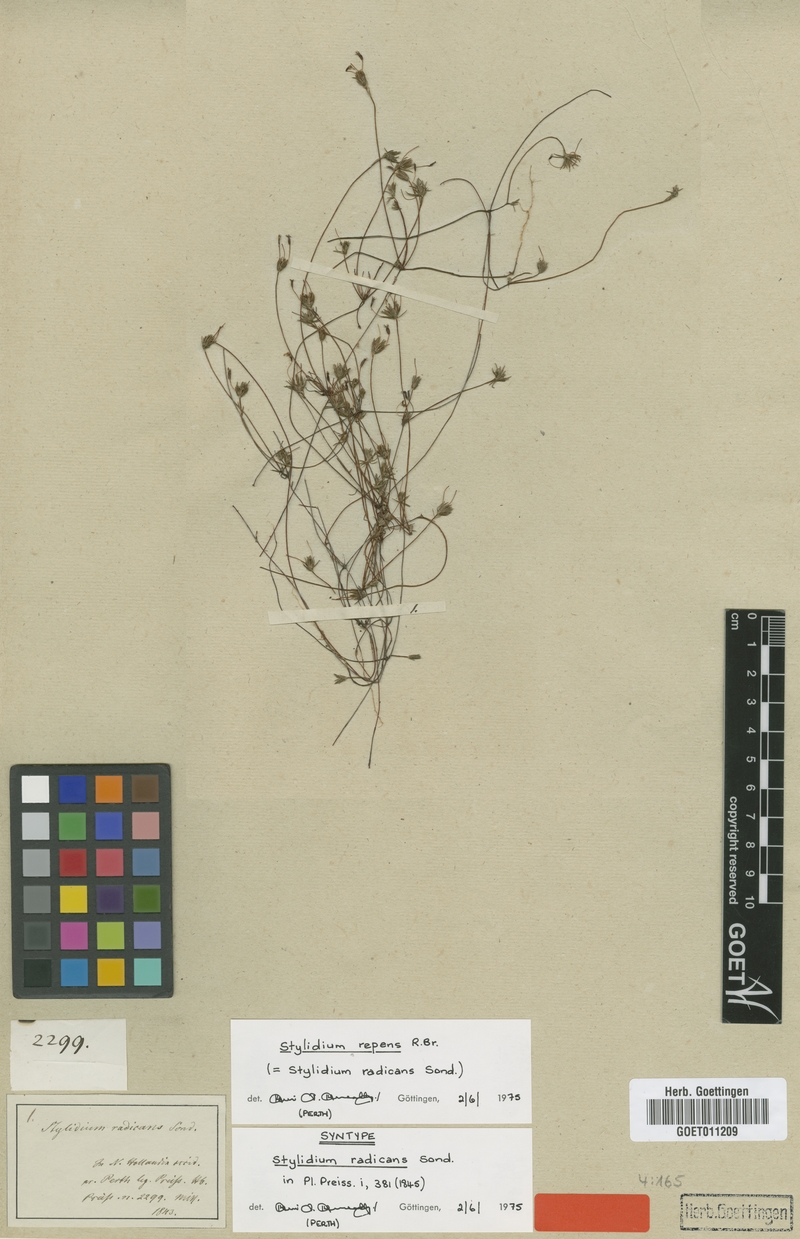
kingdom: Plantae
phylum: Tracheophyta
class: Magnoliopsida
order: Asterales
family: Stylidiaceae
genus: Stylidium
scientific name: Stylidium repens
